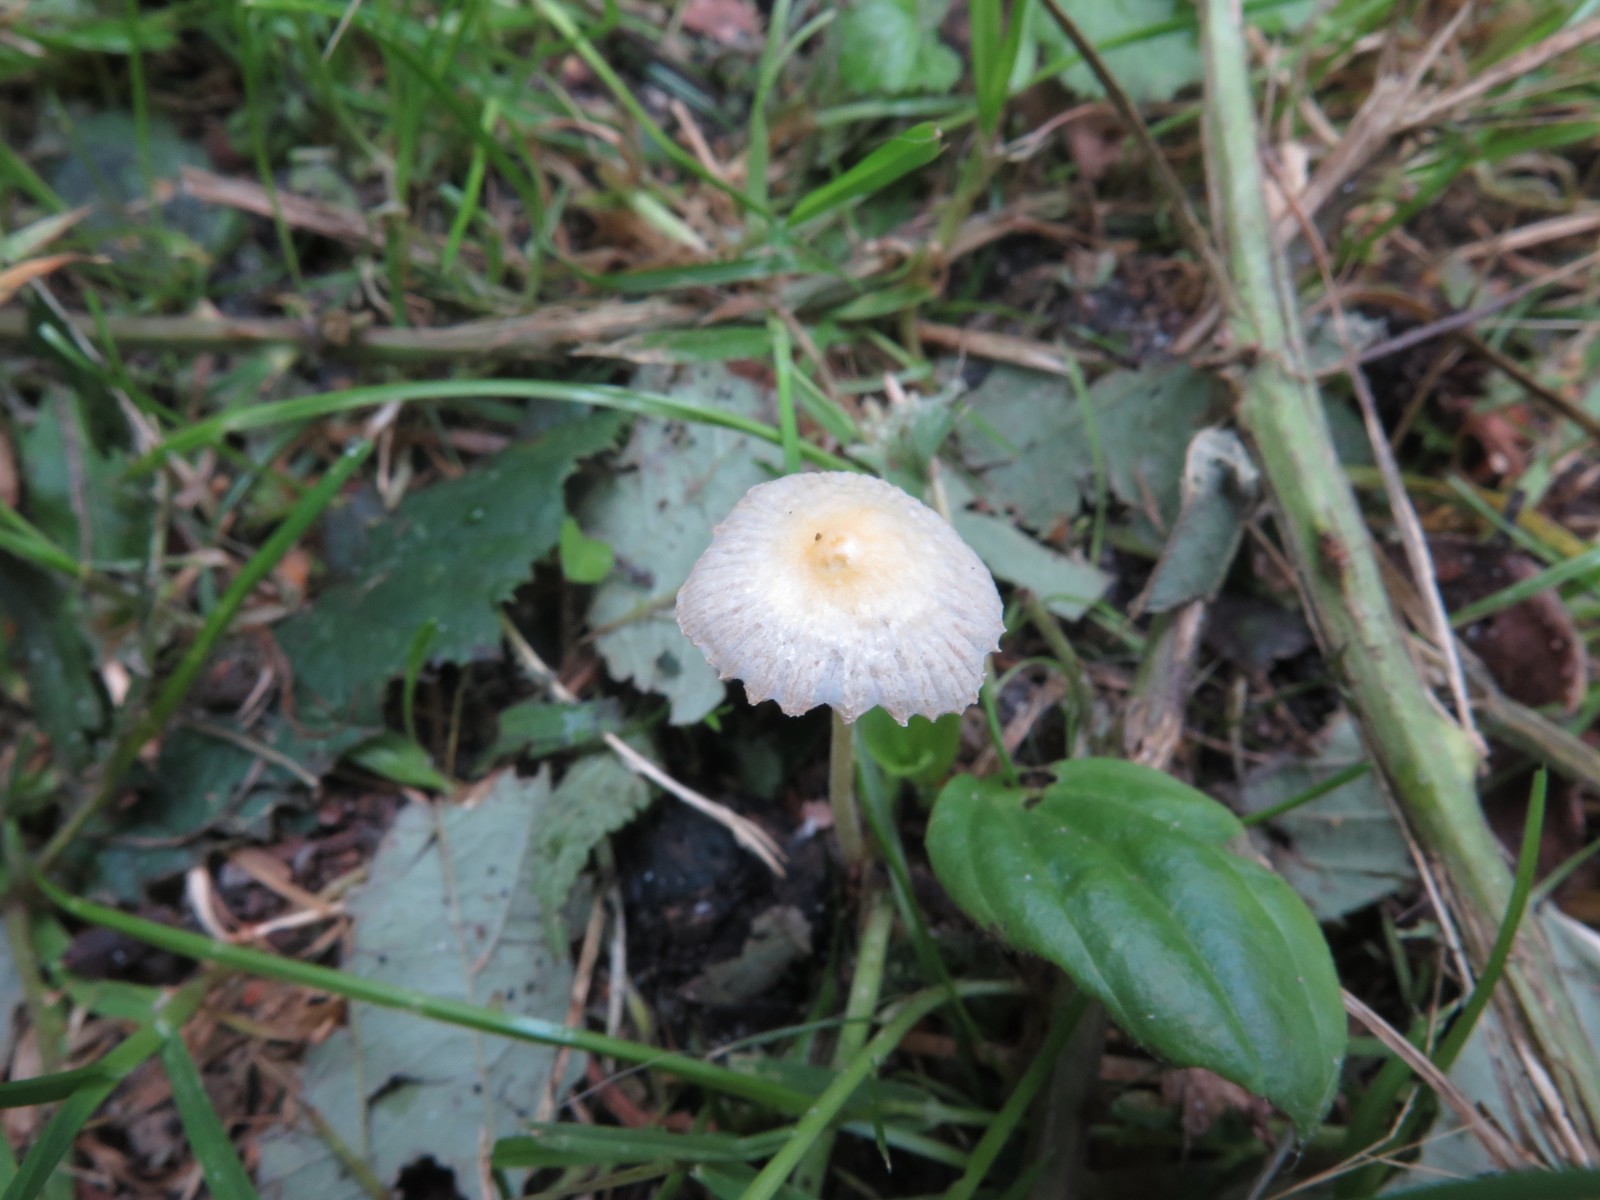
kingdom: Fungi
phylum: Basidiomycota
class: Agaricomycetes
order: Agaricales
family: Bolbitiaceae
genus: Bolbitius
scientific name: Bolbitius titubans
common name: almindelig gulhat
